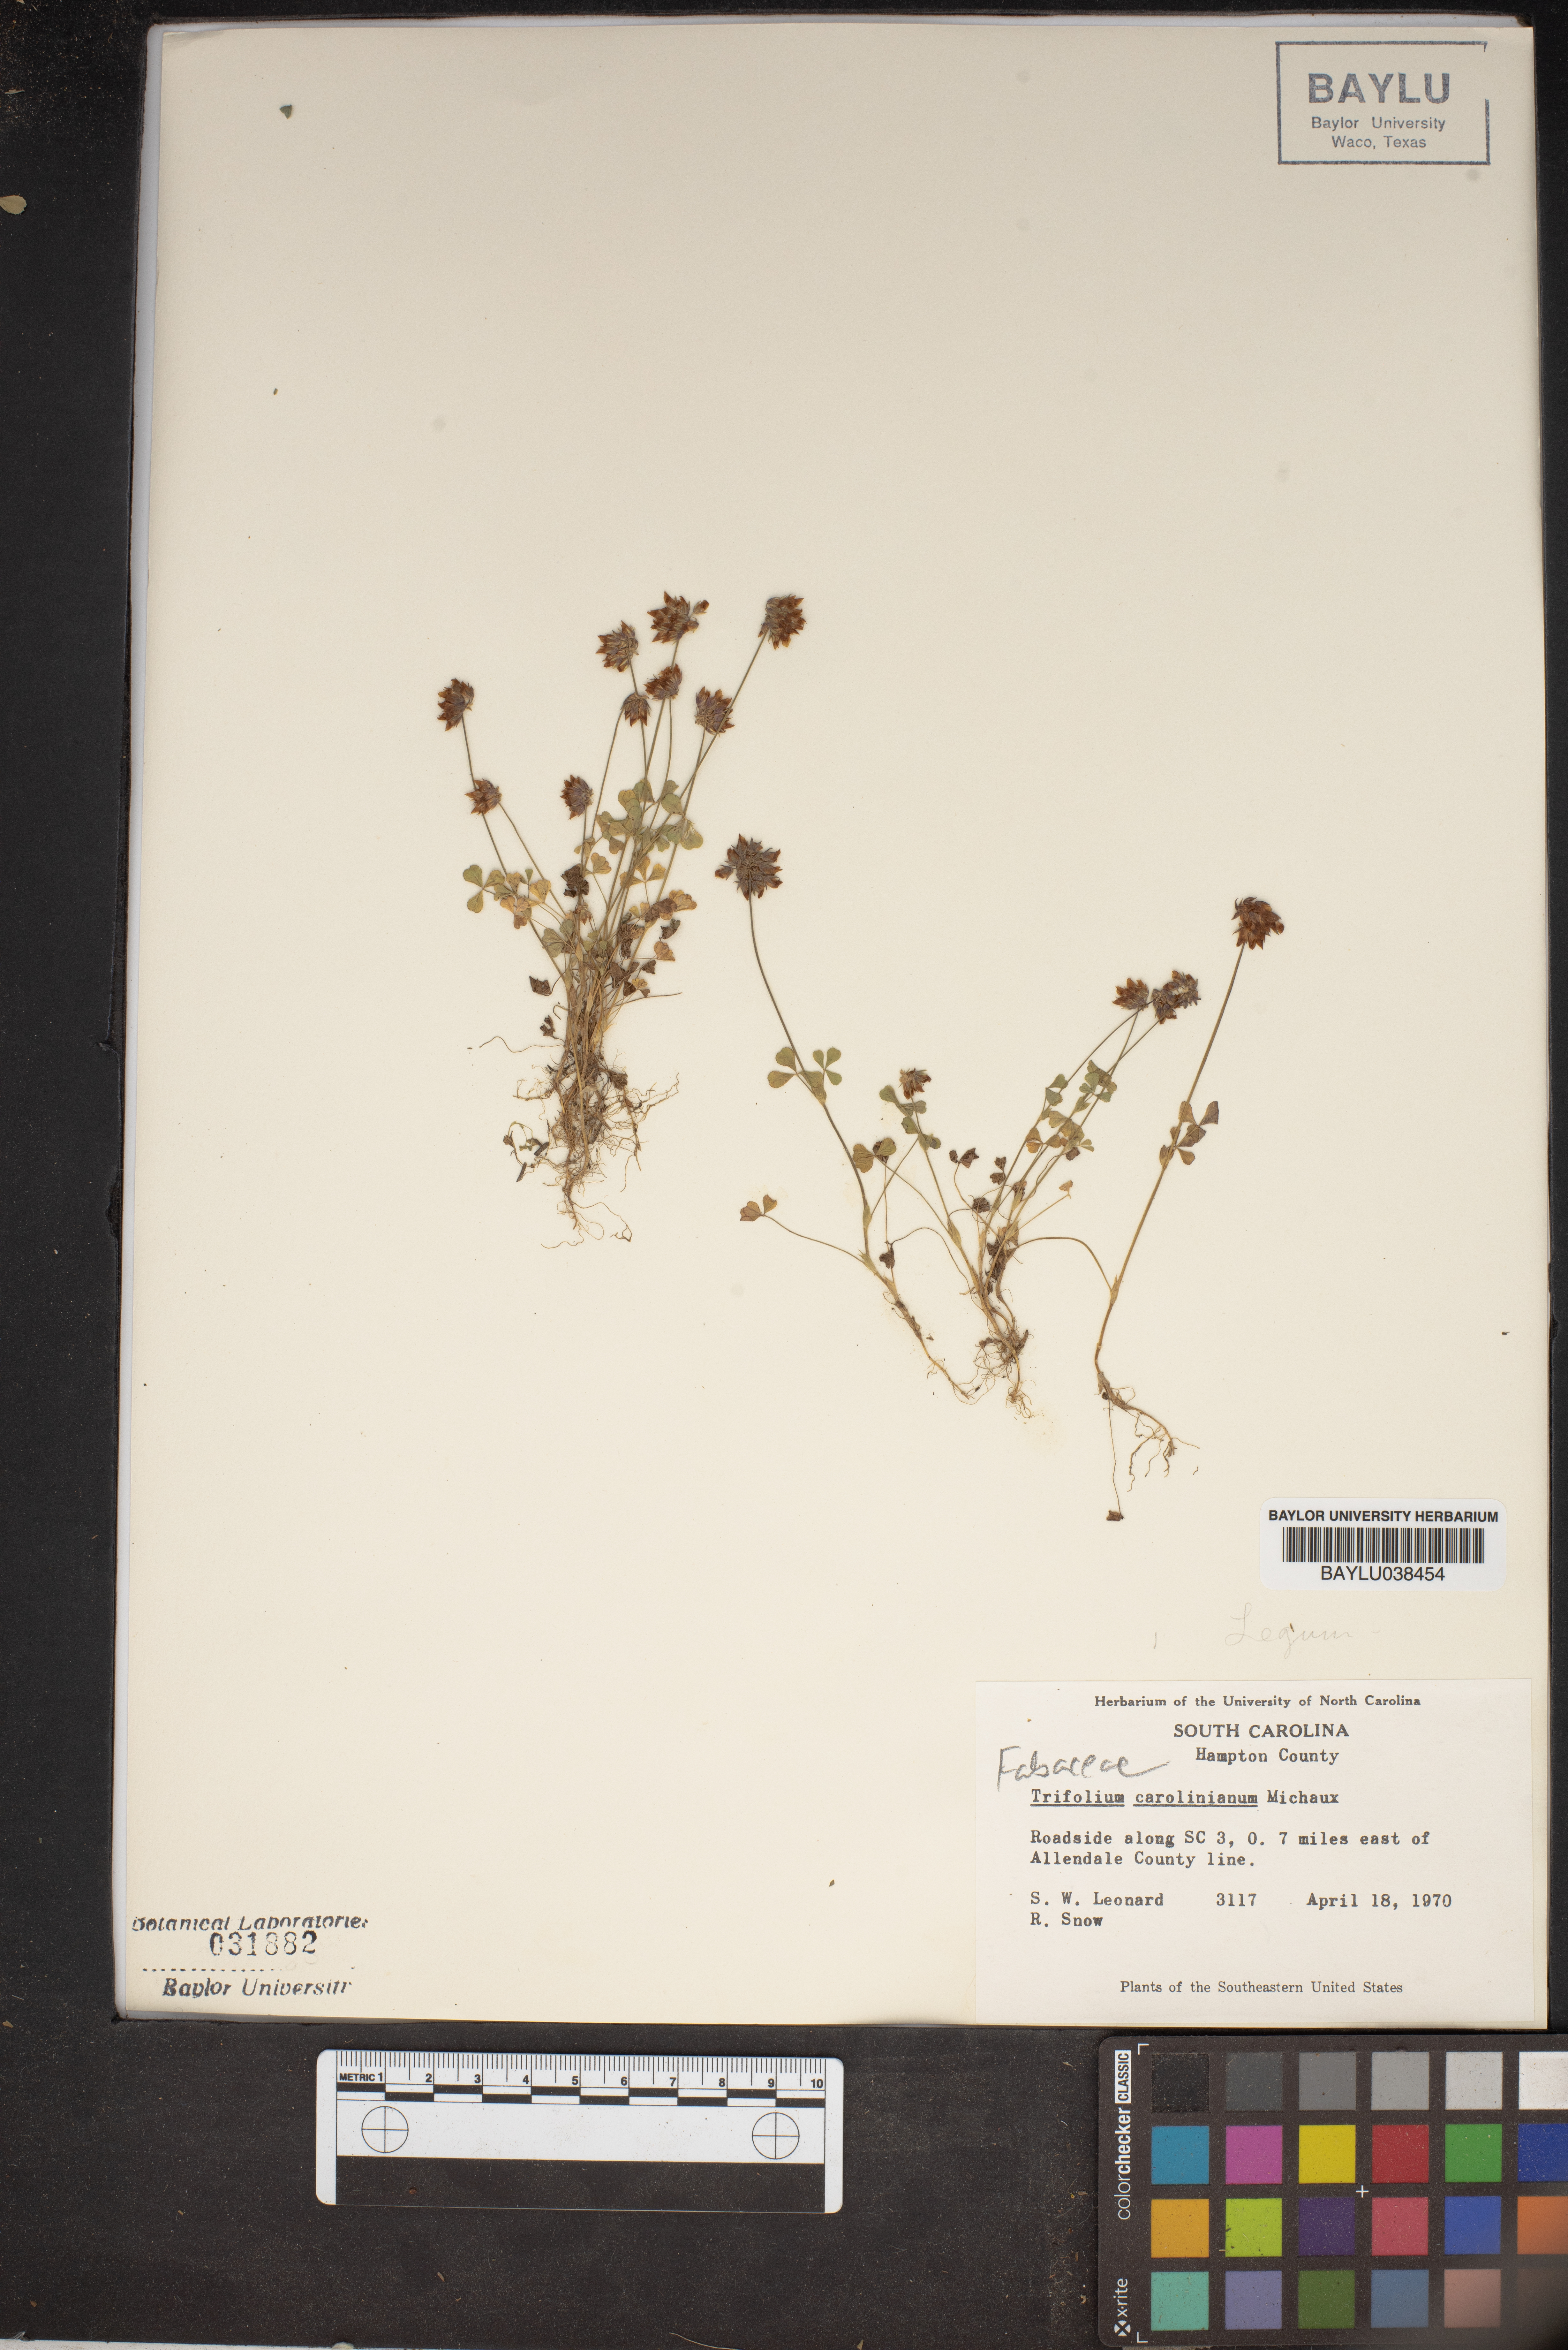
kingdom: Plantae
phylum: Tracheophyta
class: Magnoliopsida
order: Fabales
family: Fabaceae
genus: Trifolium
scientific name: Trifolium carolinianum
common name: Wild white clover
